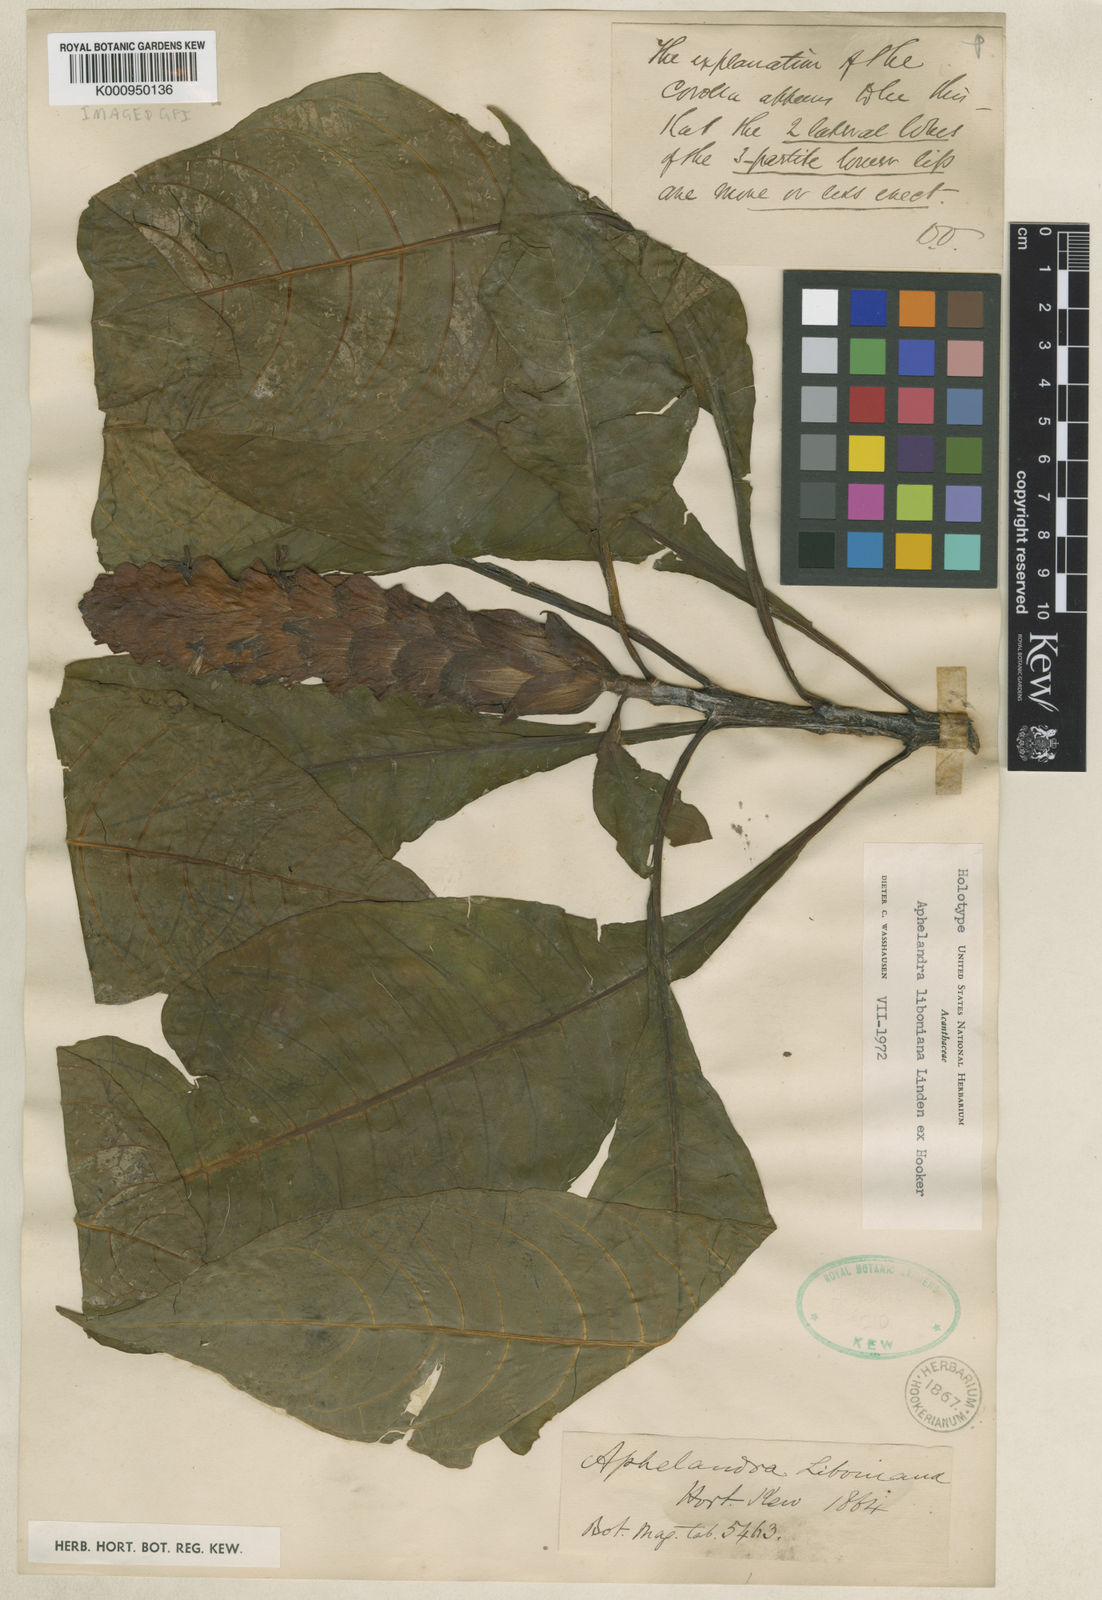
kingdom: Plantae
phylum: Tracheophyta
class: Magnoliopsida
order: Lamiales
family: Acanthaceae
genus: Aphelandra
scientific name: Aphelandra liboniana
